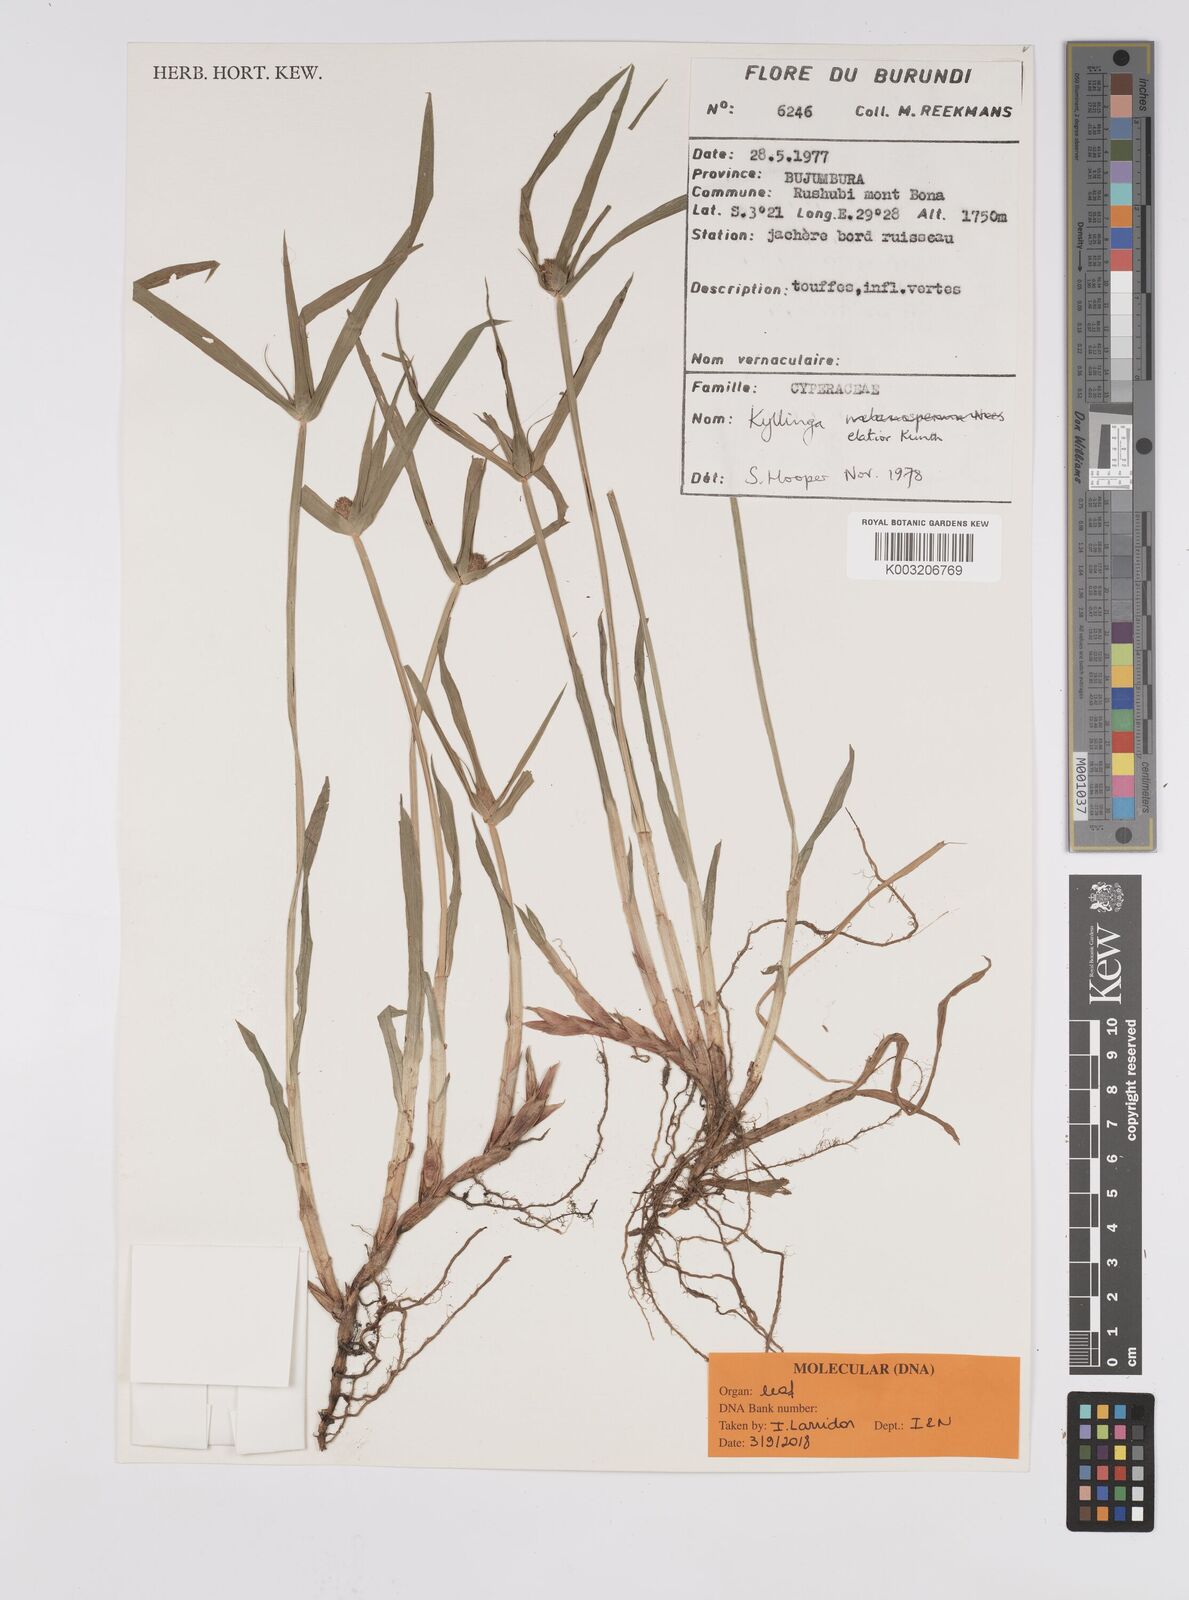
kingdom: Plantae
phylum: Tracheophyta
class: Liliopsida
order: Poales
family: Cyperaceae
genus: Cyperus
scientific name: Cyperus
